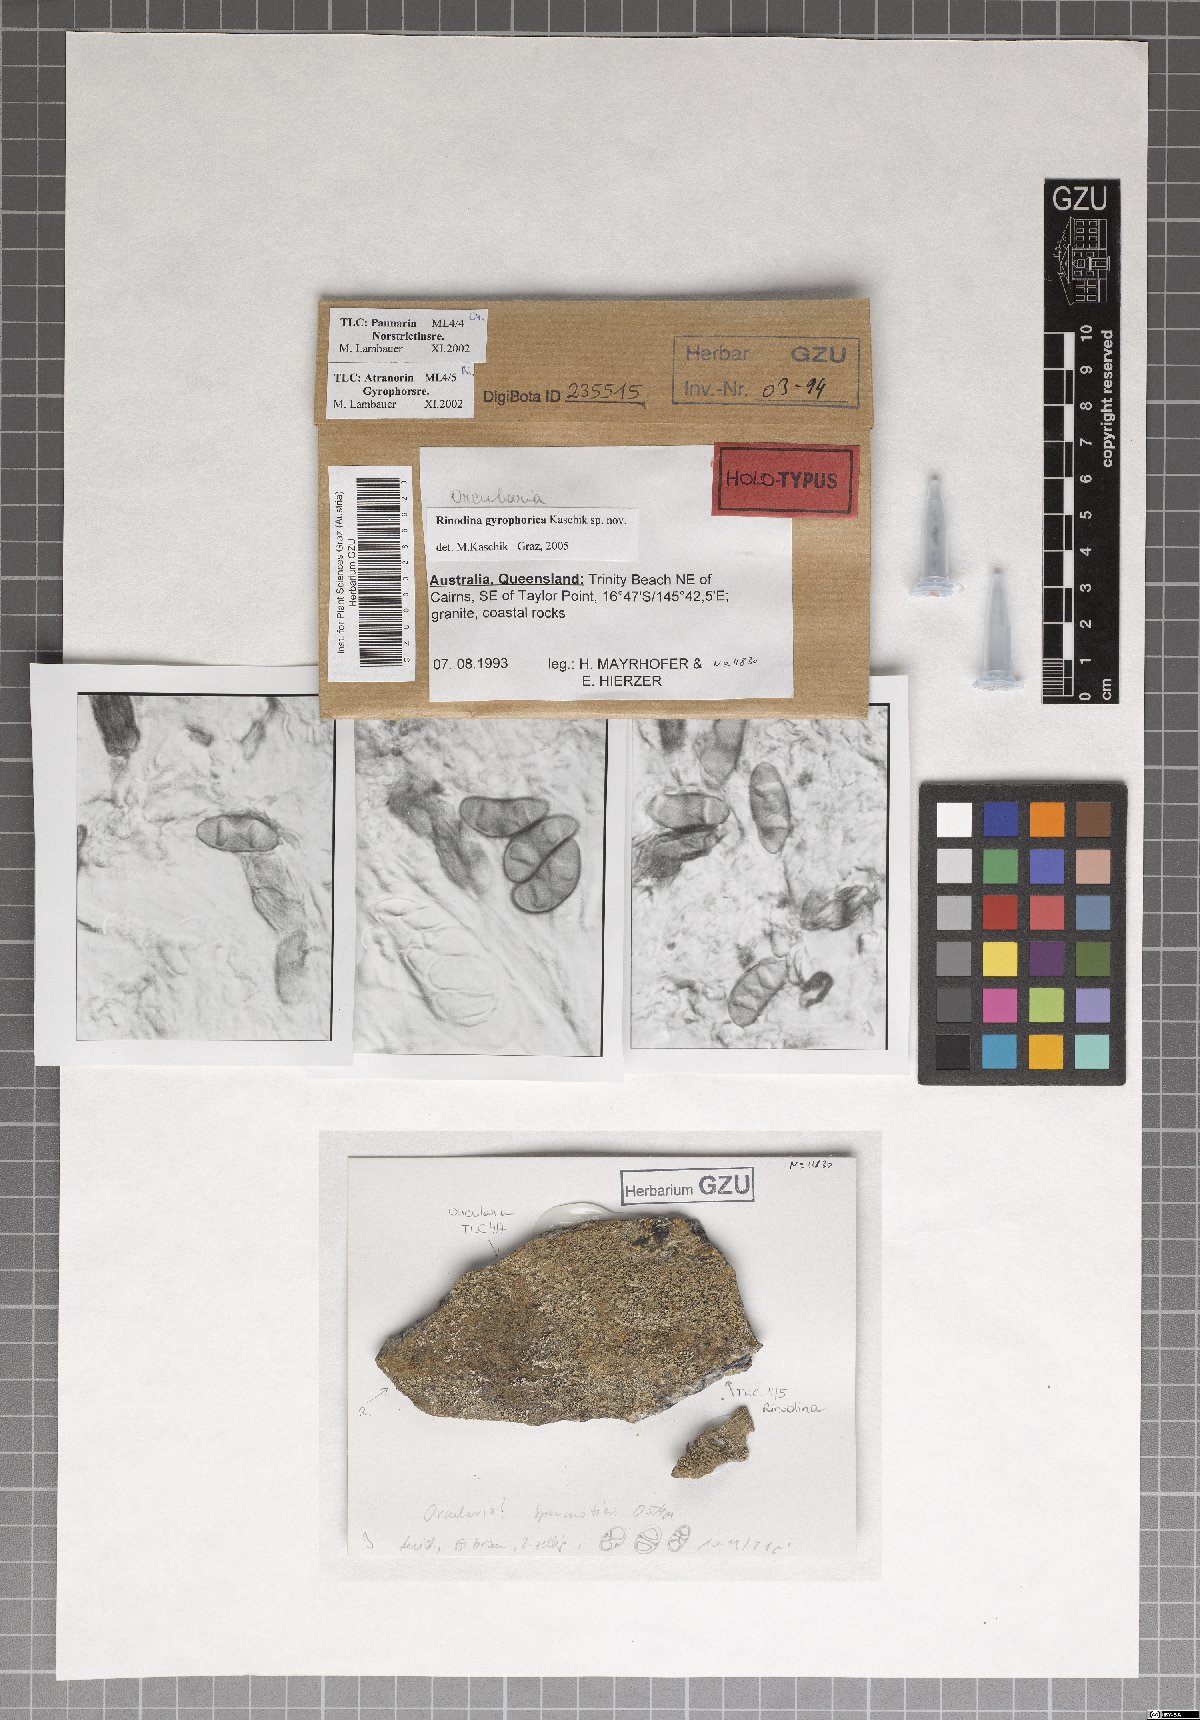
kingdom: Fungi
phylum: Ascomycota
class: Lecanoromycetes
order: Caliciales
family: Physciaceae
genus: Rinodina
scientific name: Rinodina gyrophorica
